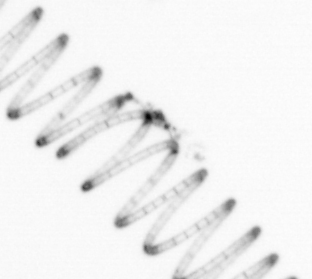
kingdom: Chromista
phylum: Ochrophyta
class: Bacillariophyceae
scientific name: Bacillariophyceae
